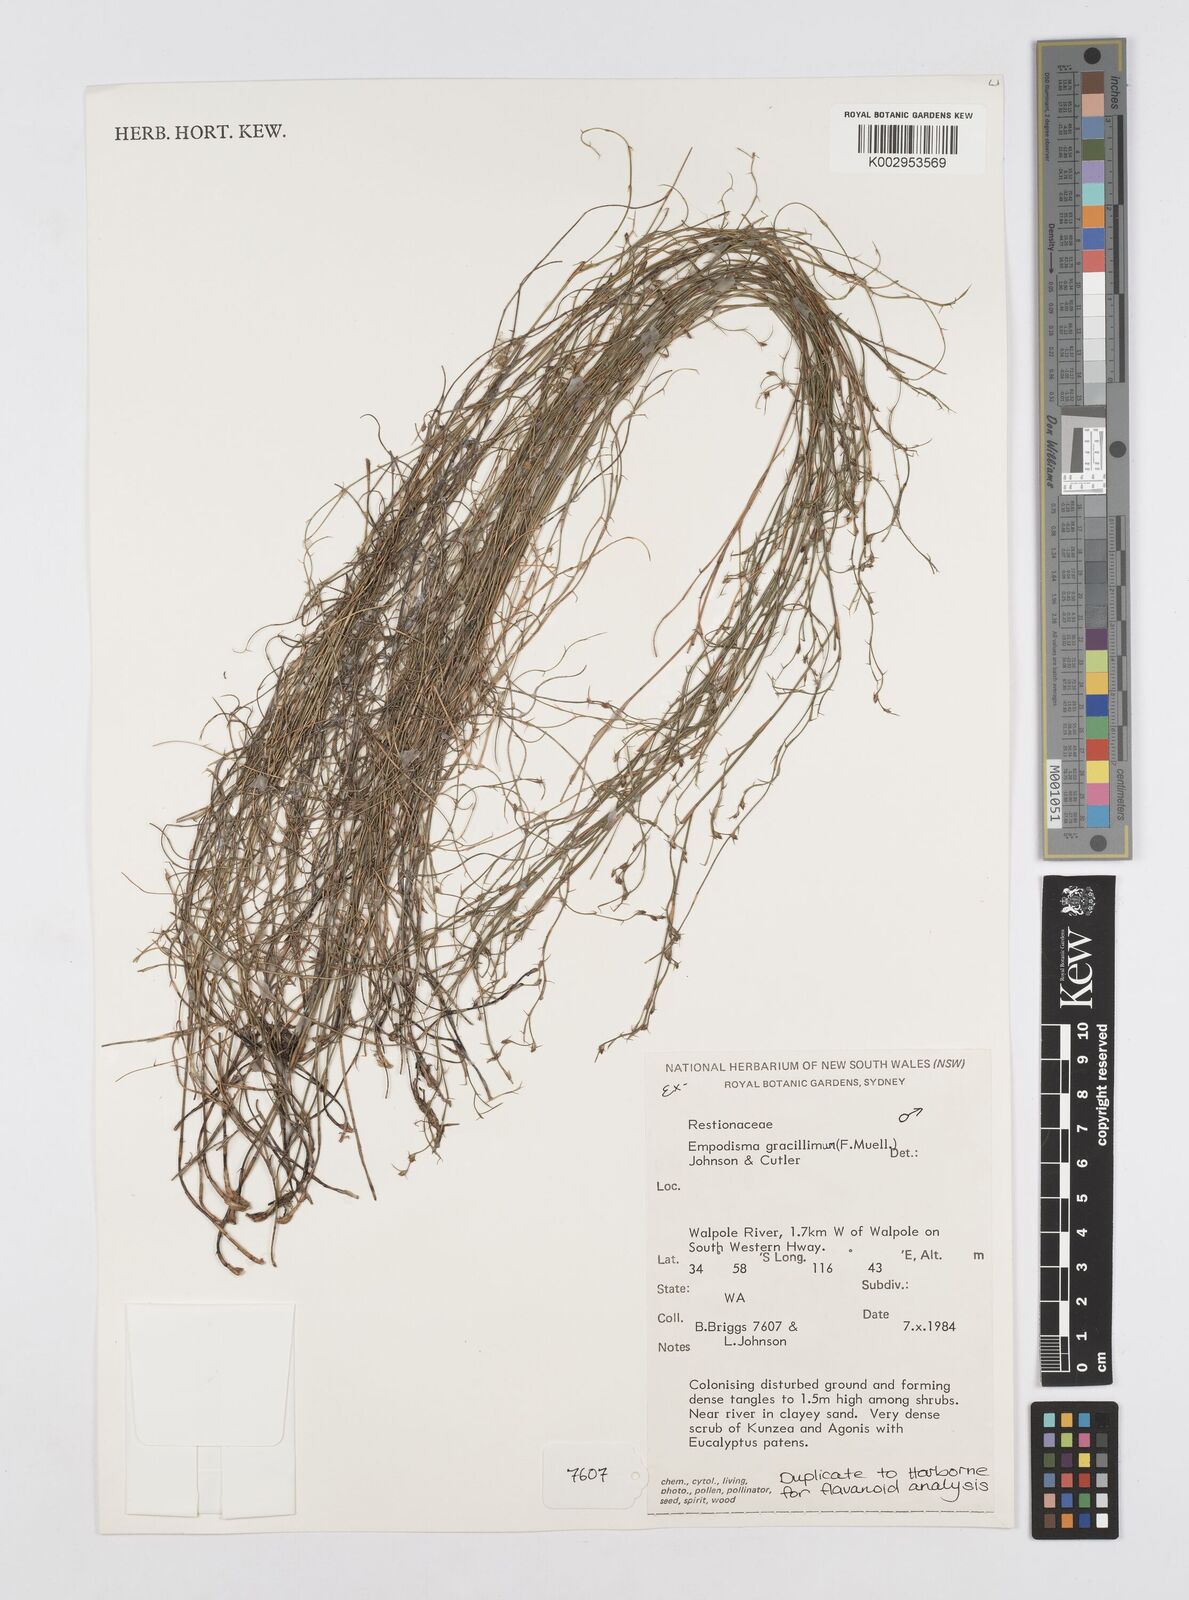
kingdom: Plantae
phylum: Tracheophyta
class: Liliopsida
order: Poales
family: Restionaceae
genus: Empodisma
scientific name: Empodisma gracillimum
